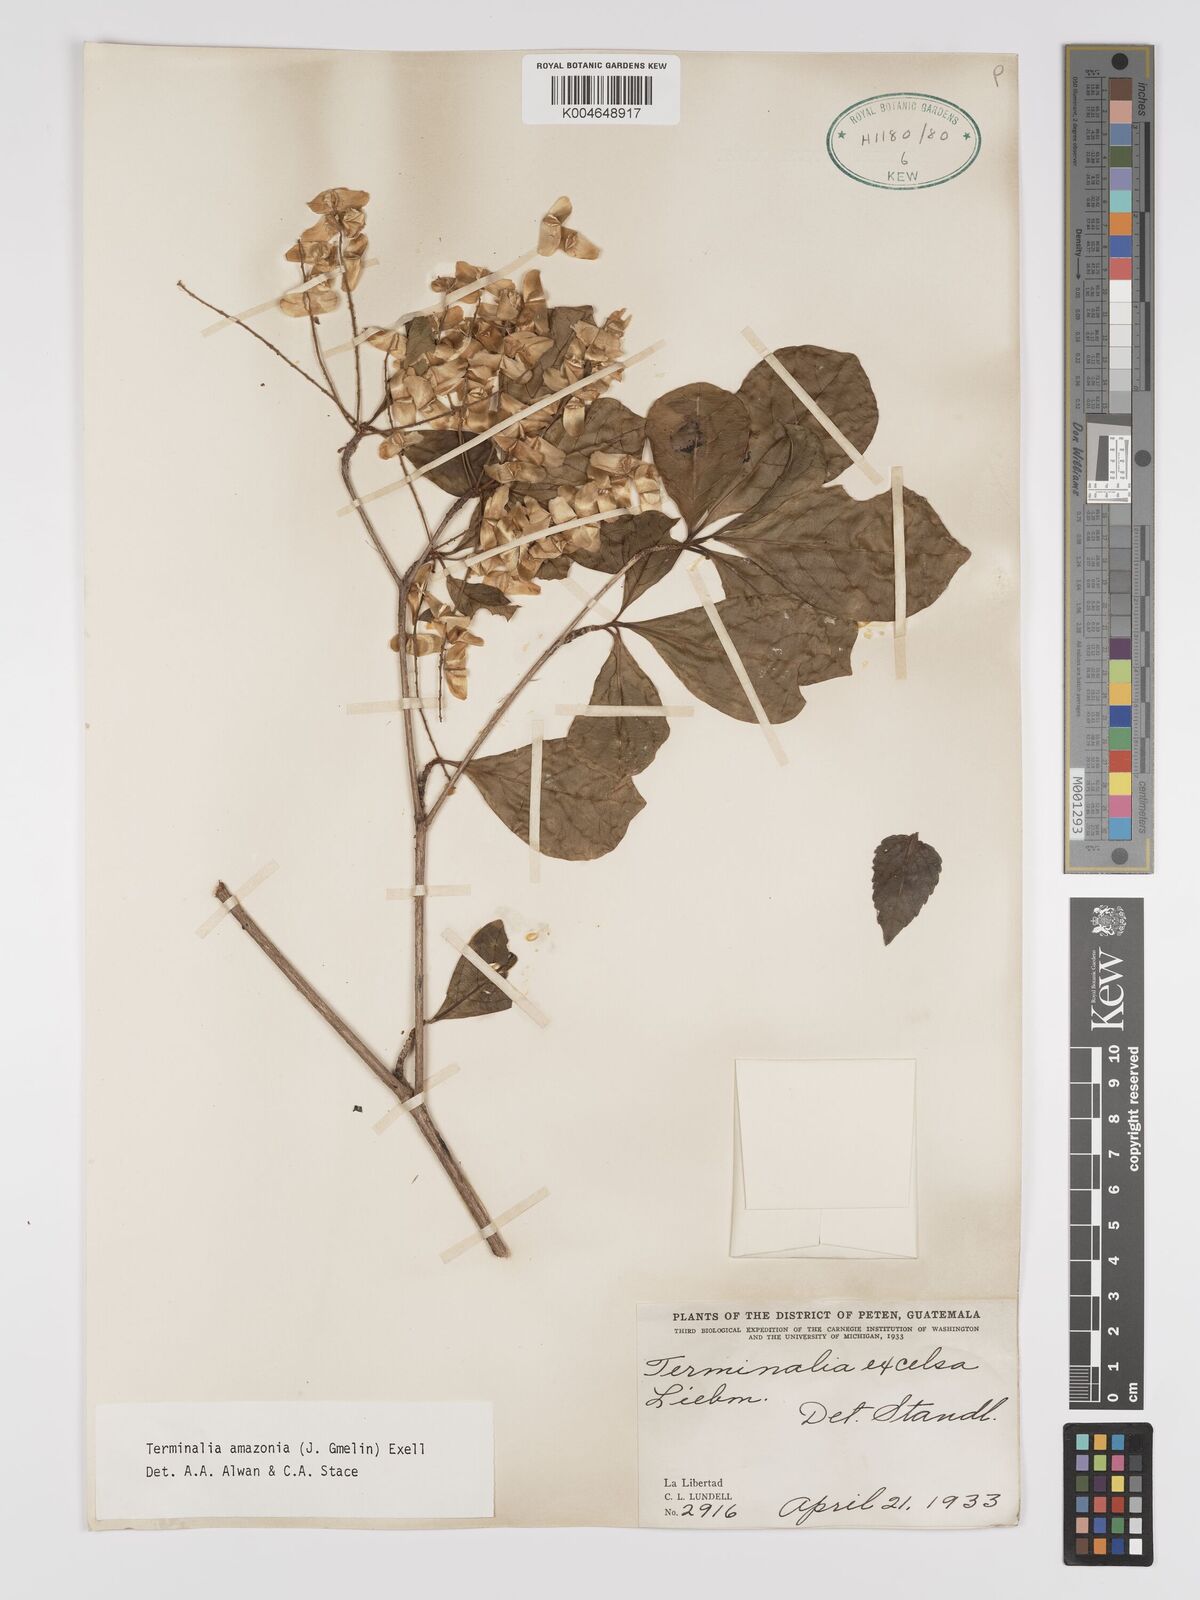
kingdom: Plantae
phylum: Tracheophyta
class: Magnoliopsida
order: Myrtales
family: Combretaceae
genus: Terminalia
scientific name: Terminalia amazonica
